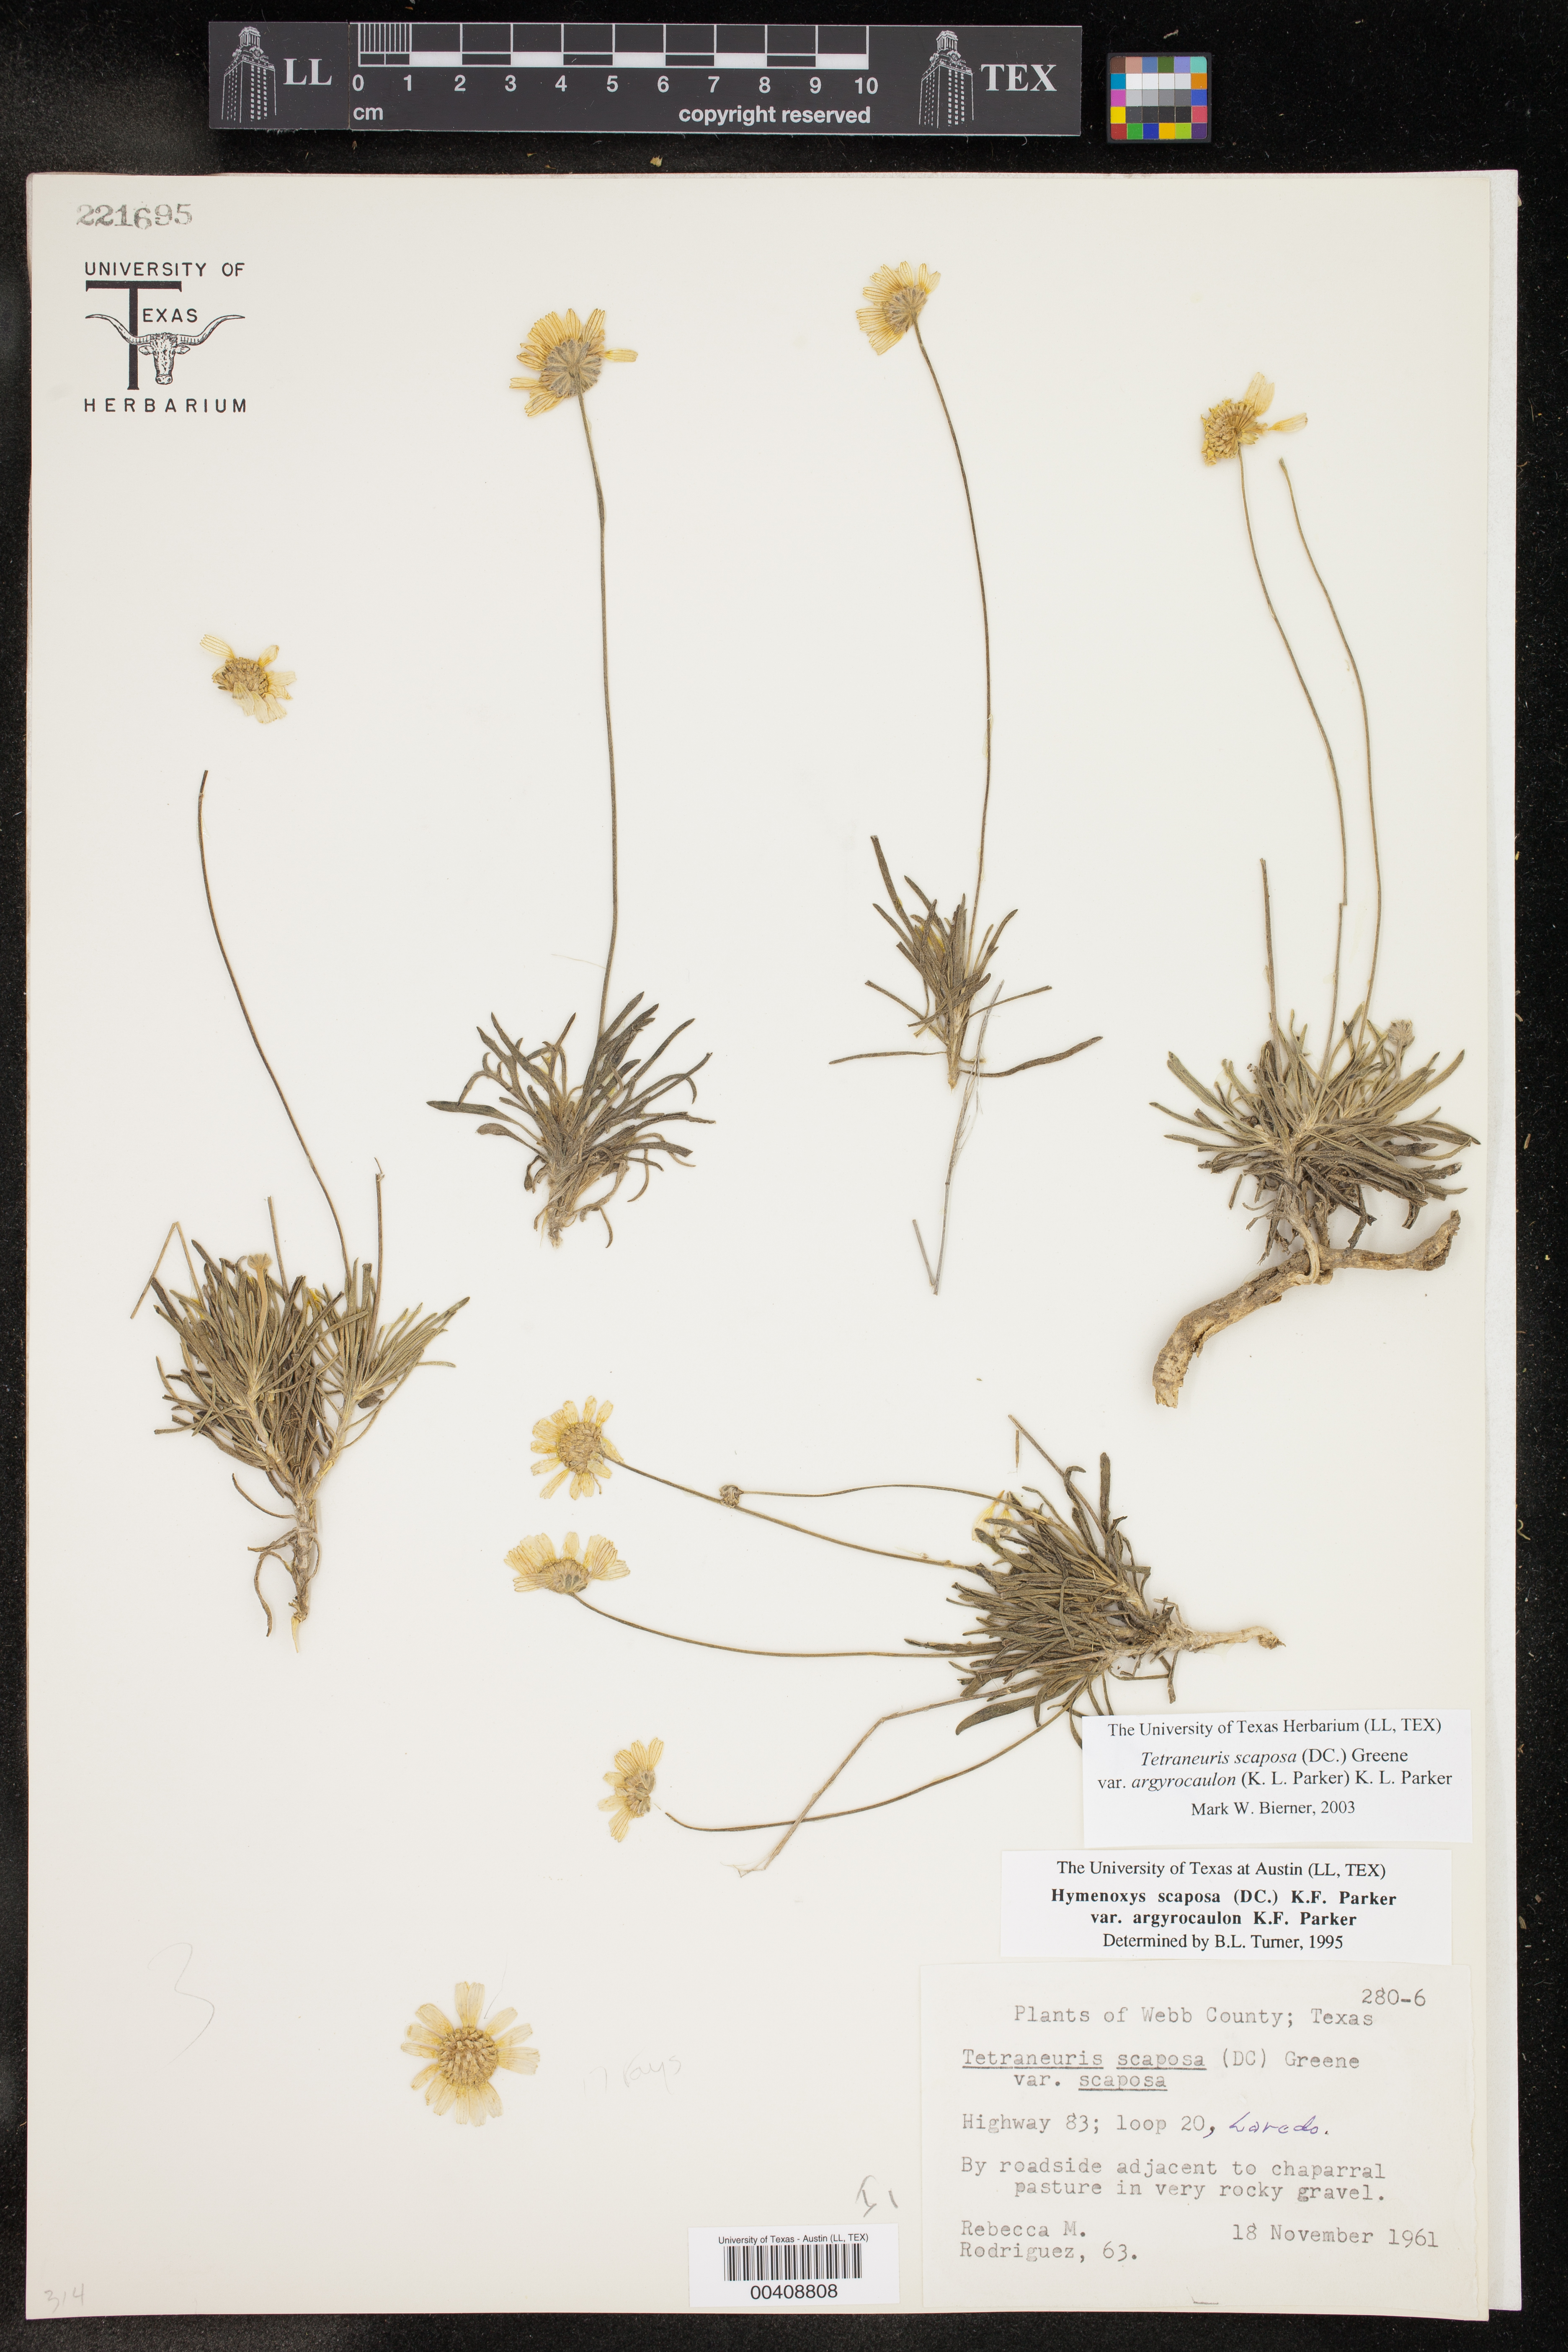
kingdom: Plantae
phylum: Tracheophyta
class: Magnoliopsida
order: Asterales
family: Asteraceae
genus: Tetraneuris
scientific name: Tetraneuris scaposa
